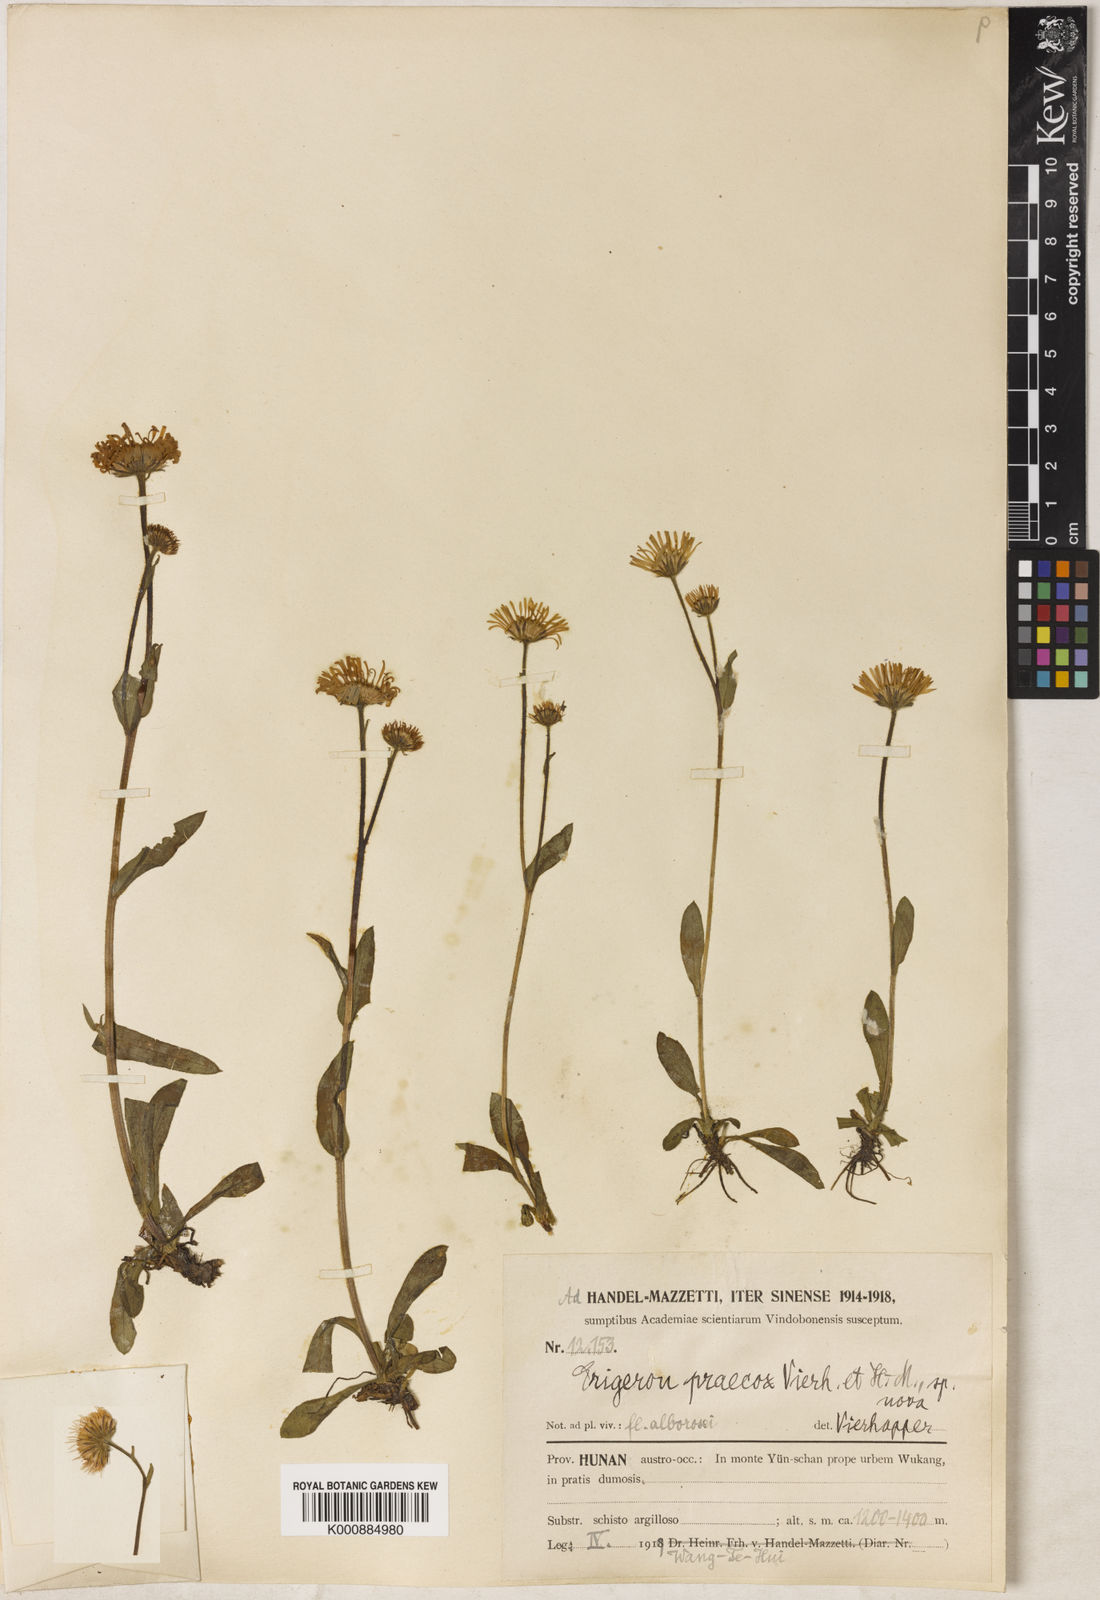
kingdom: Plantae
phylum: Tracheophyta
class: Magnoliopsida
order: Asterales
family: Asteraceae
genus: Erigeron
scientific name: Erigeron breviscapus
